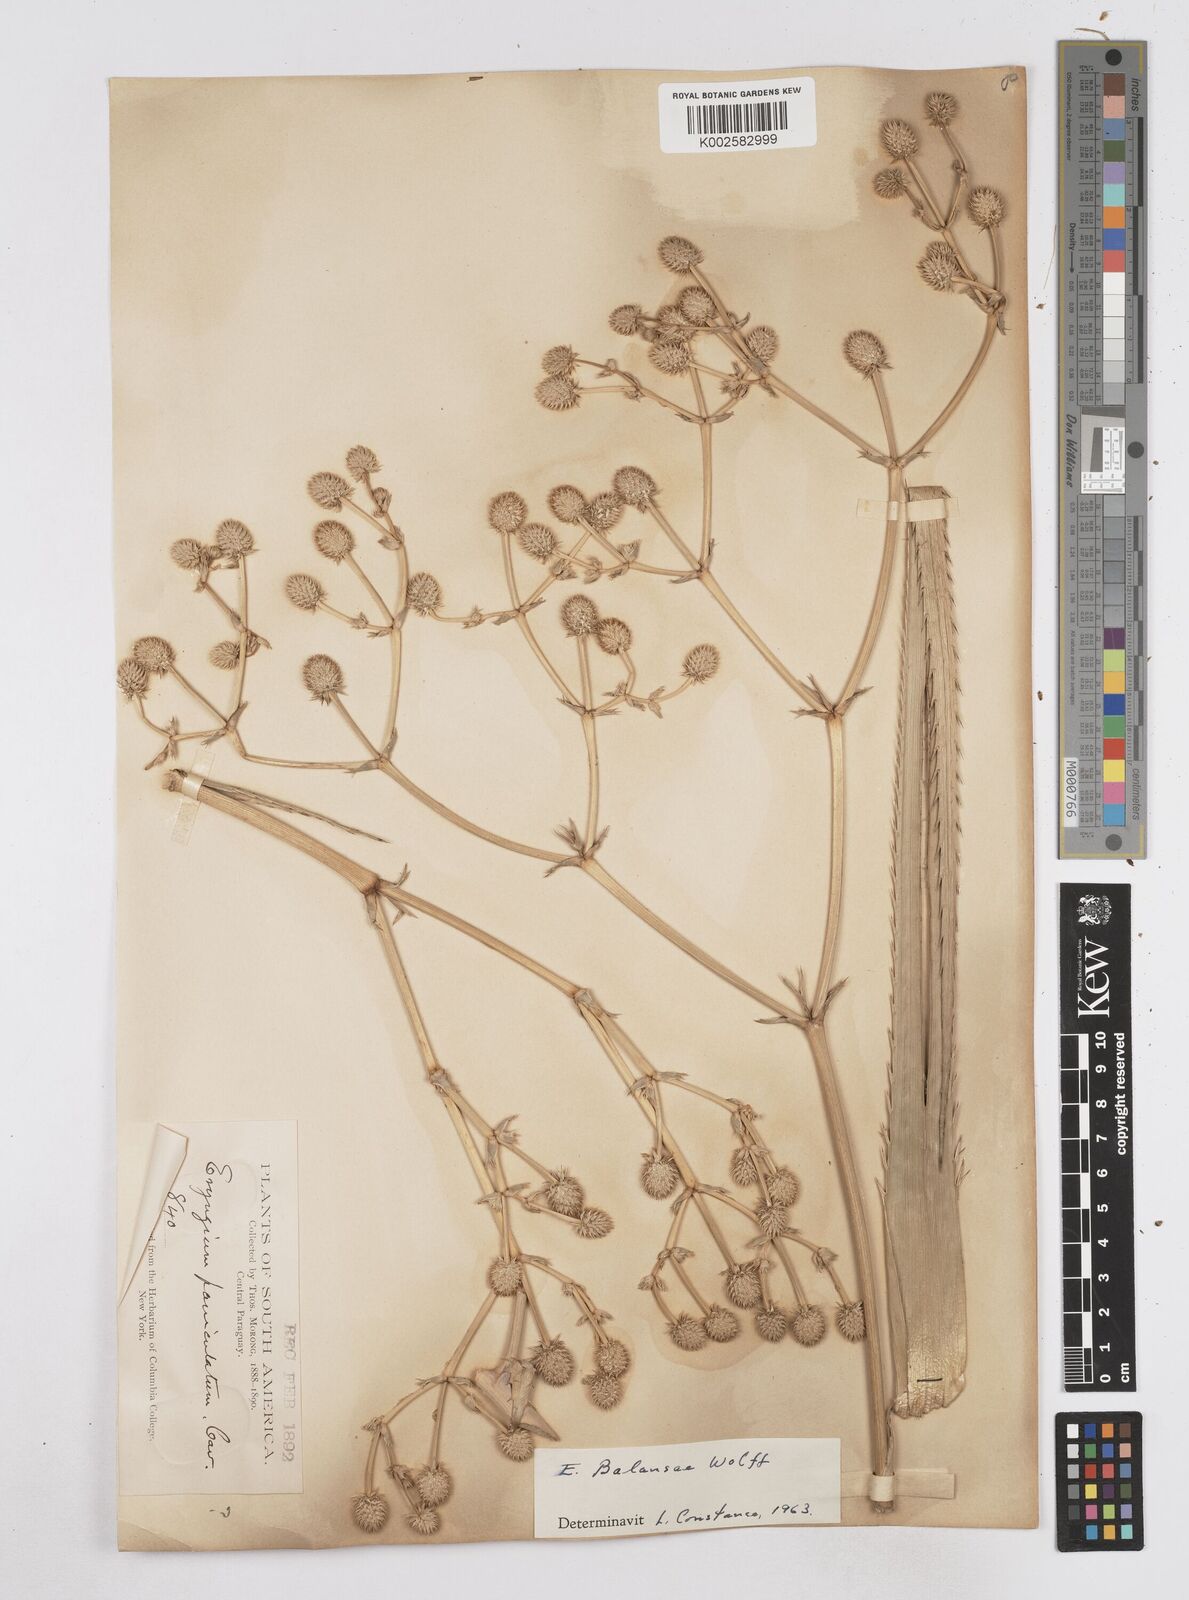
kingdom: Plantae
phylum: Tracheophyta
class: Magnoliopsida
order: Apiales
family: Apiaceae
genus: Eryngium
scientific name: Eryngium balansae
